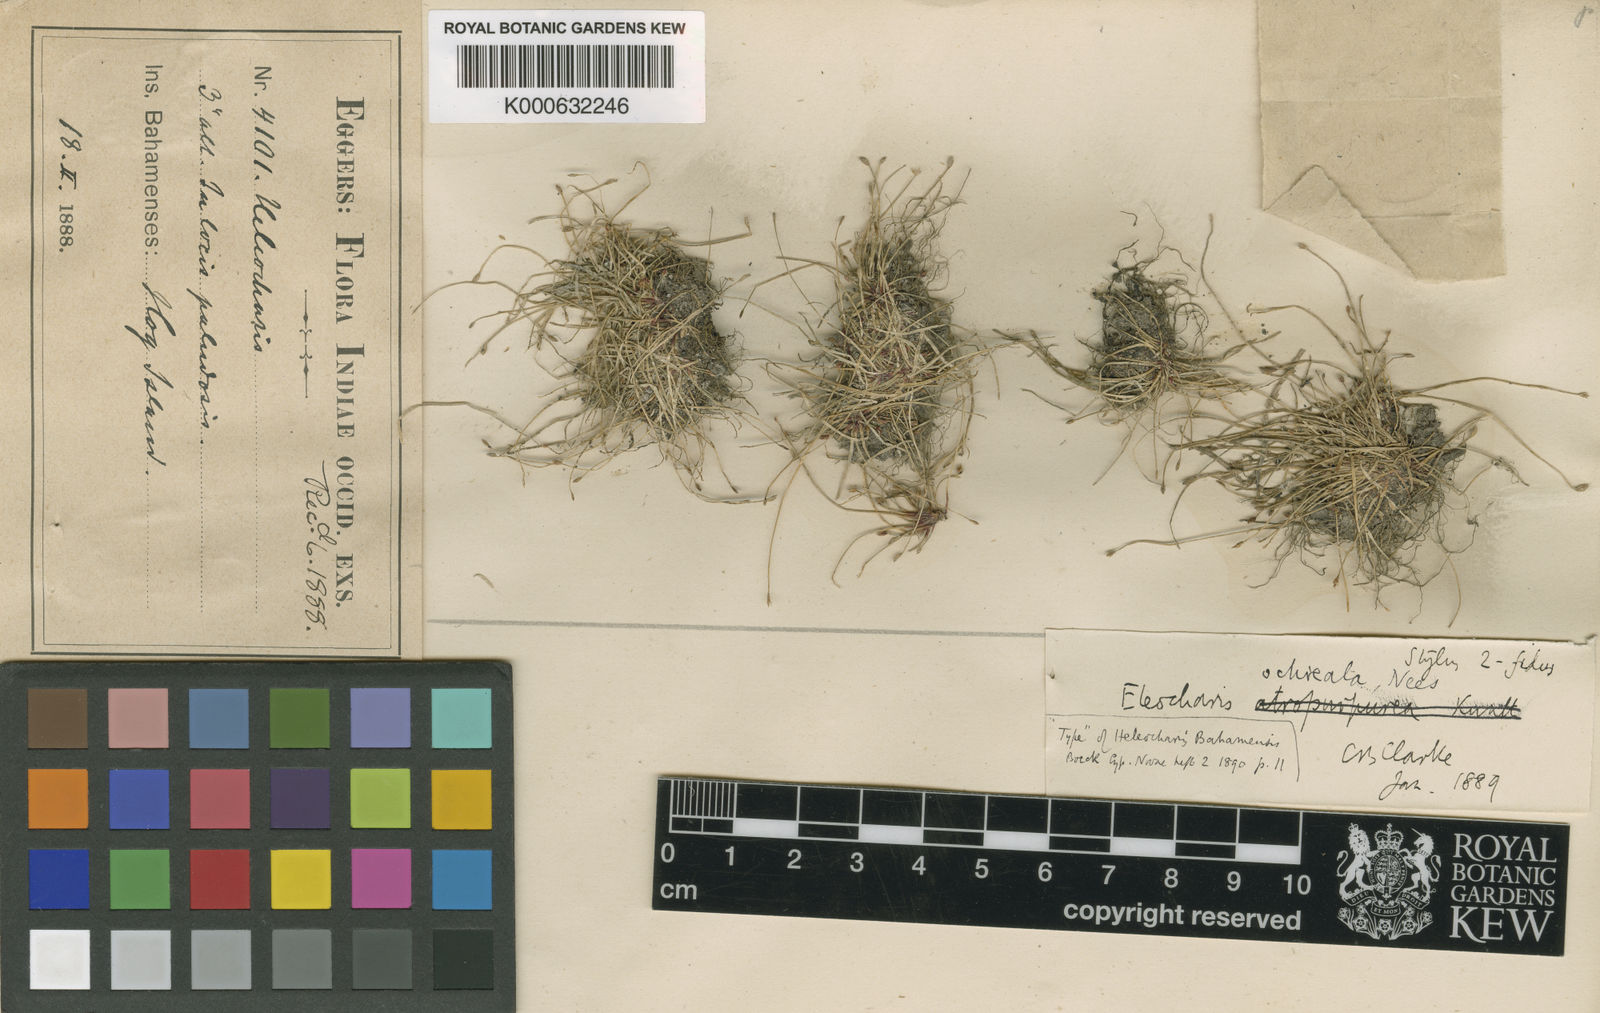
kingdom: Plantae
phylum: Tracheophyta
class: Liliopsida
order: Poales
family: Cyperaceae
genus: Eleocharis
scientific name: Eleocharis bahamensis
